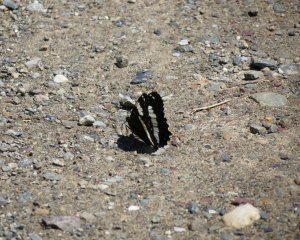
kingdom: Animalia
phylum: Arthropoda
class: Insecta
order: Lepidoptera
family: Nymphalidae
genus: Limenitis
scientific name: Limenitis arthemis
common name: Red-spotted Admiral
